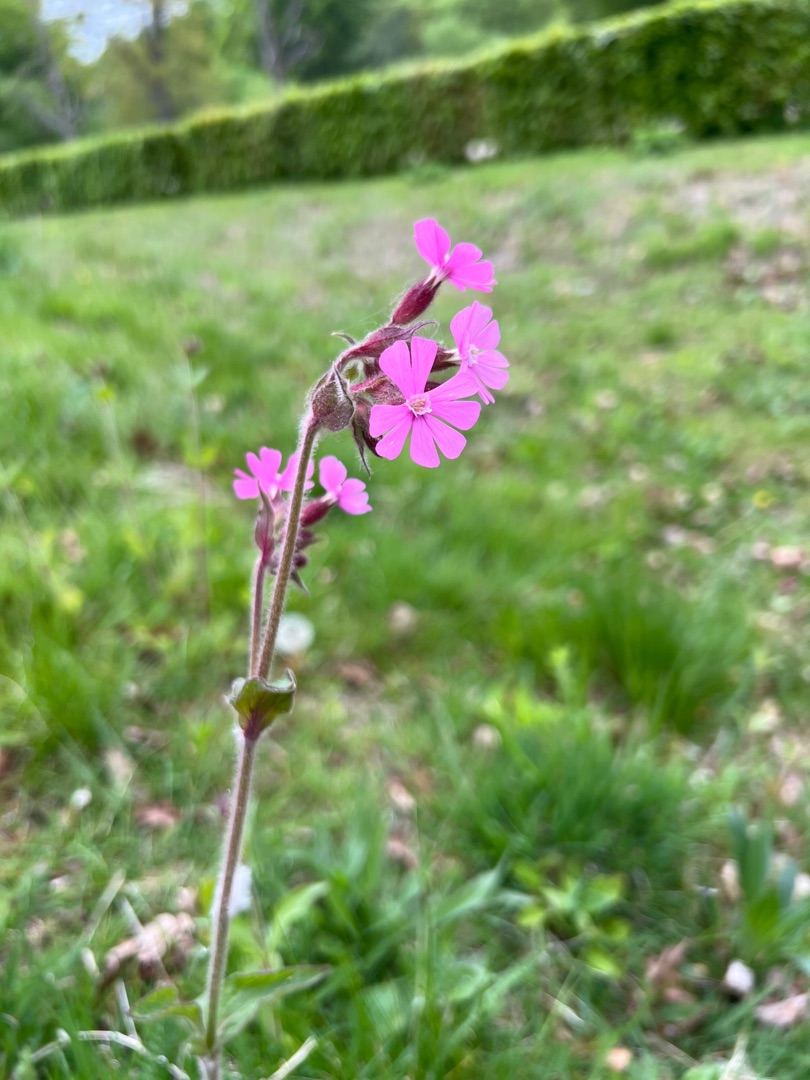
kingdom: Plantae
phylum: Tracheophyta
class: Magnoliopsida
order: Caryophyllales
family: Caryophyllaceae
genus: Silene
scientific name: Silene dioica
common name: Dagpragtstjerne
